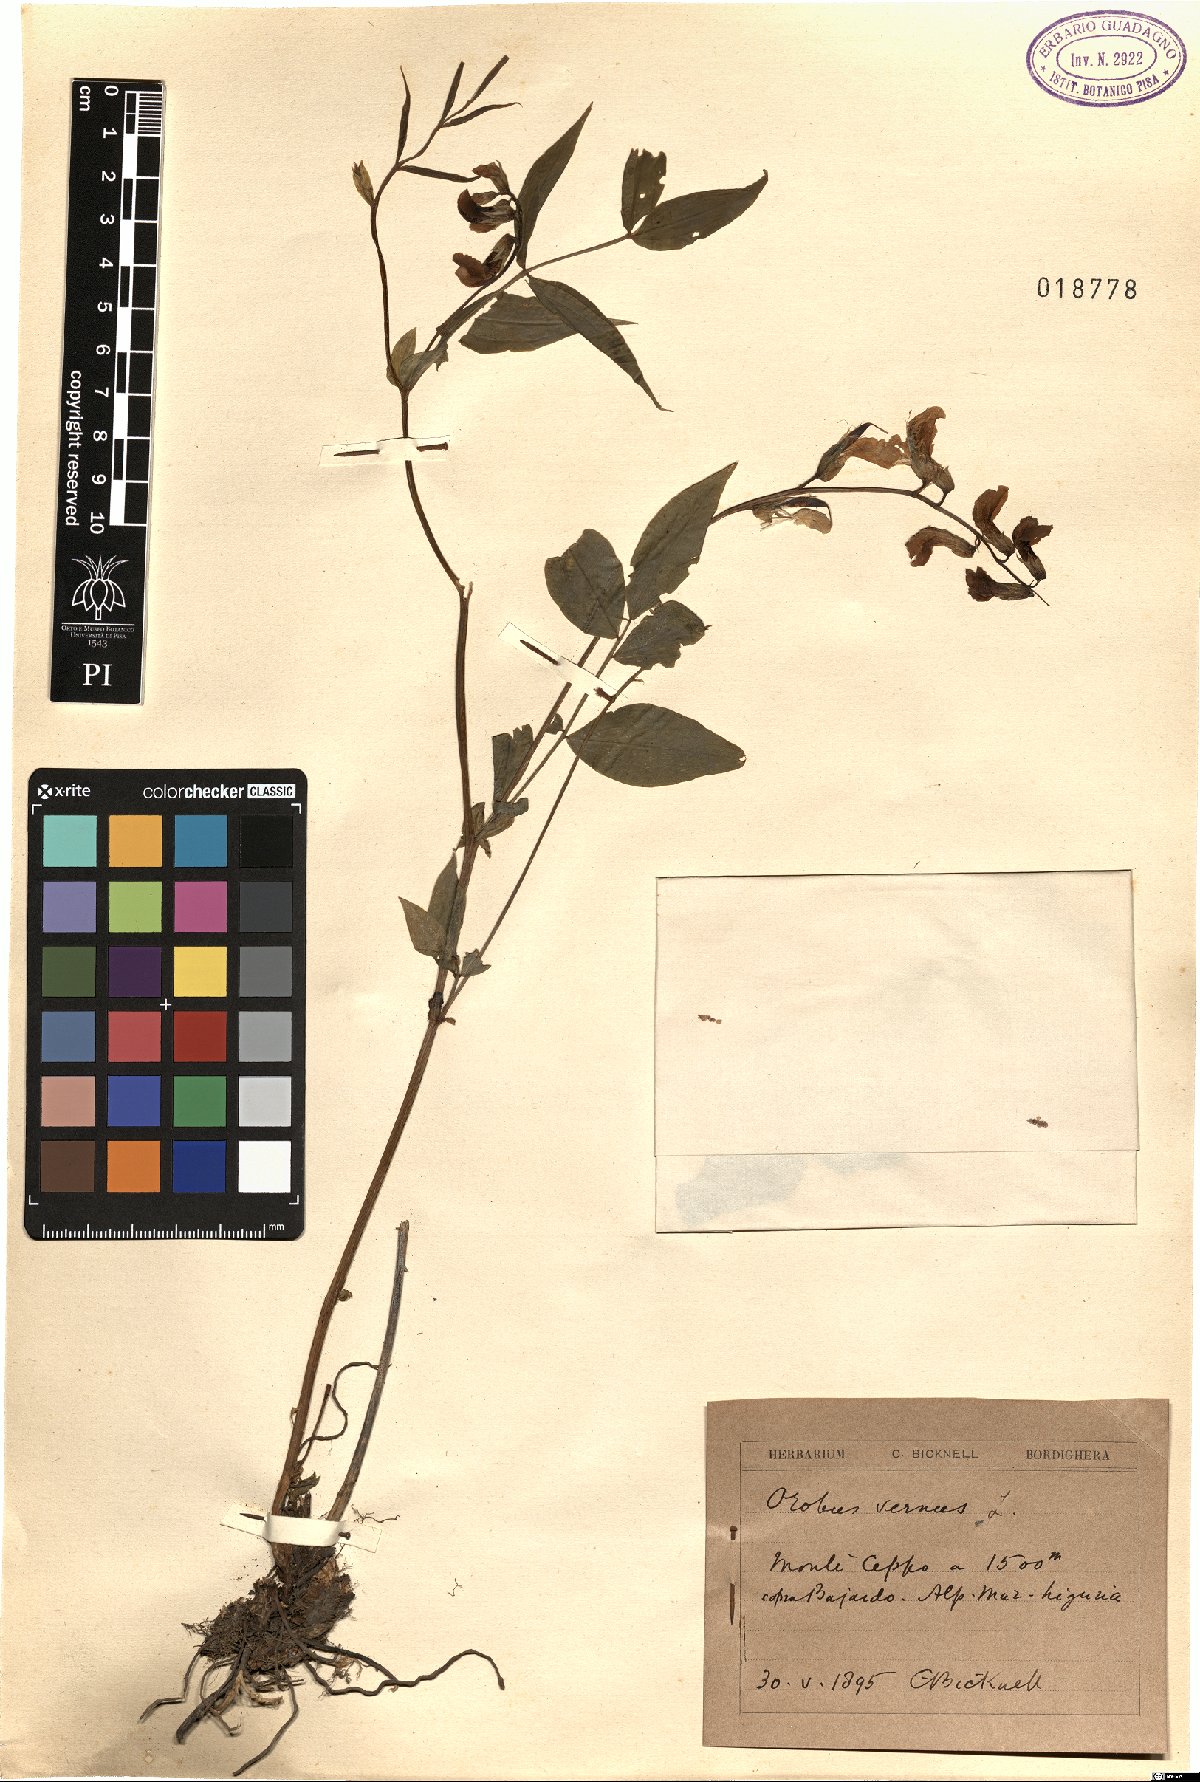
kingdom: Plantae
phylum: Tracheophyta
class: Magnoliopsida
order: Fabales
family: Fabaceae
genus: Lathyrus
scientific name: Lathyrus vernus
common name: Spring pea
